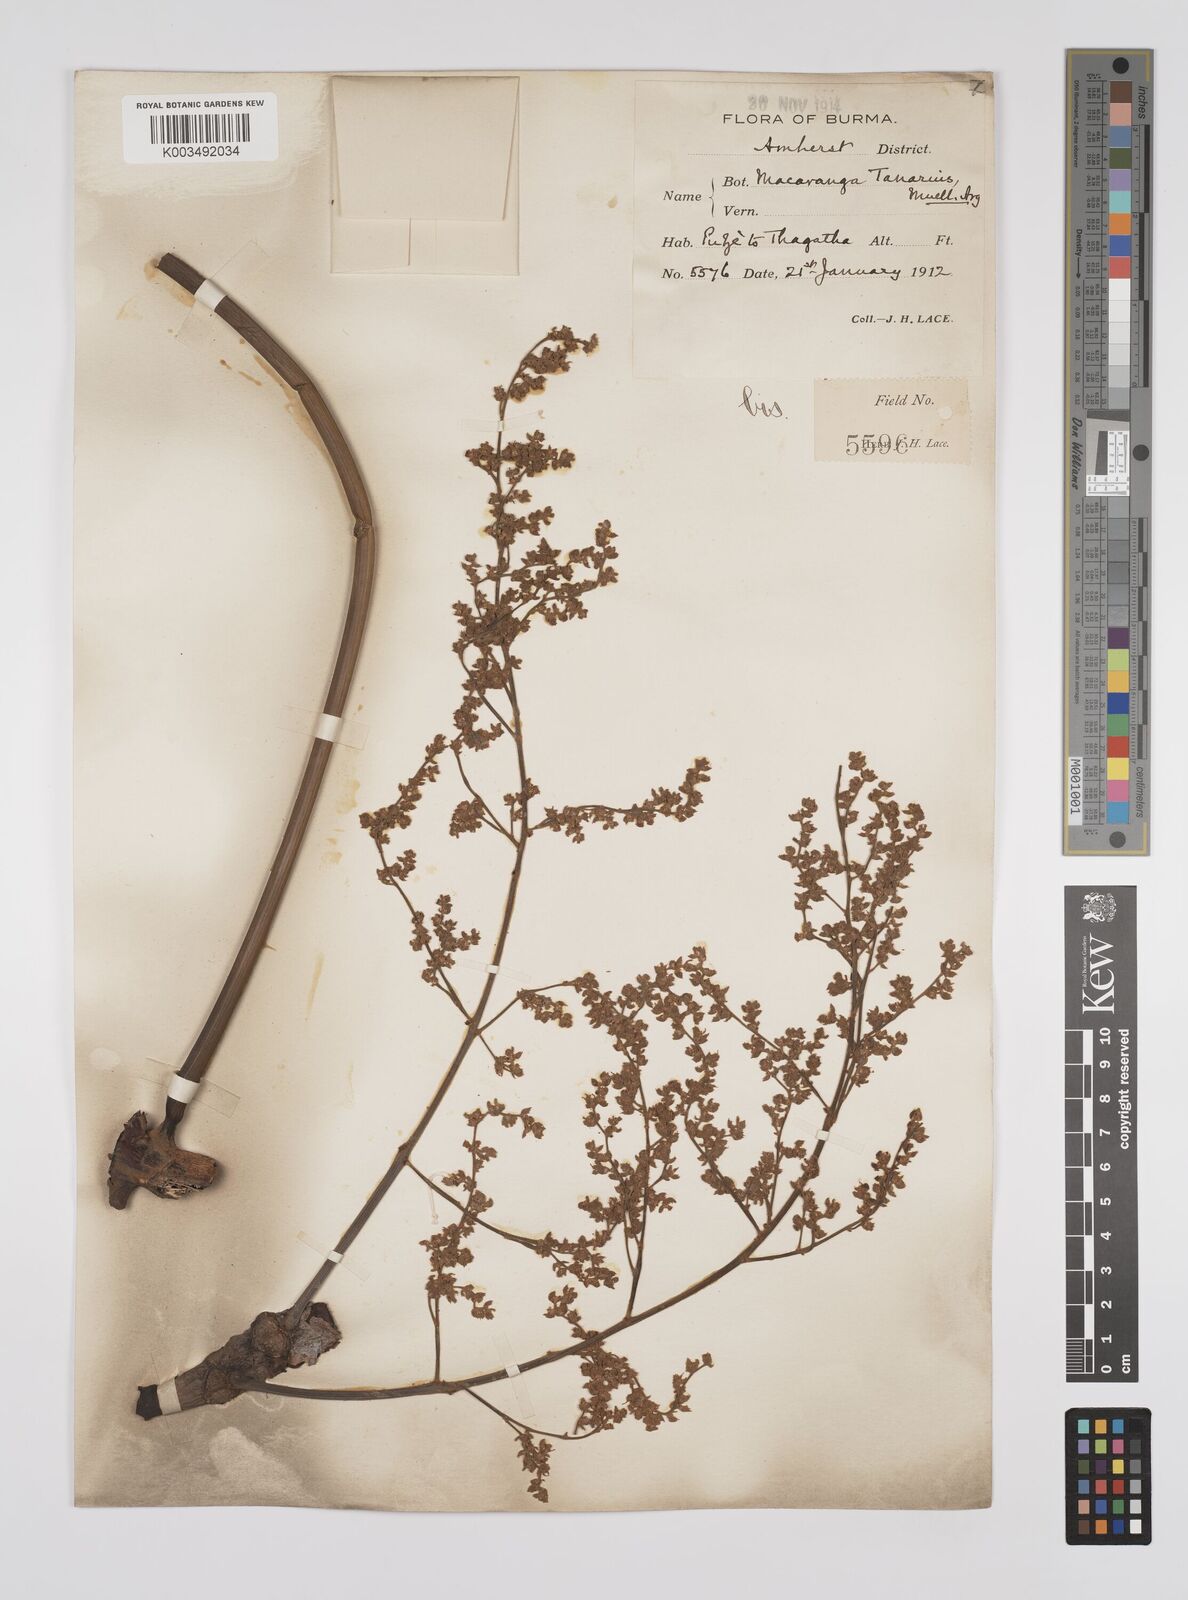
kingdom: Plantae
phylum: Tracheophyta
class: Magnoliopsida
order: Malpighiales
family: Euphorbiaceae
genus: Macaranga
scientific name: Macaranga tanarius
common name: Parasol leaf tree
